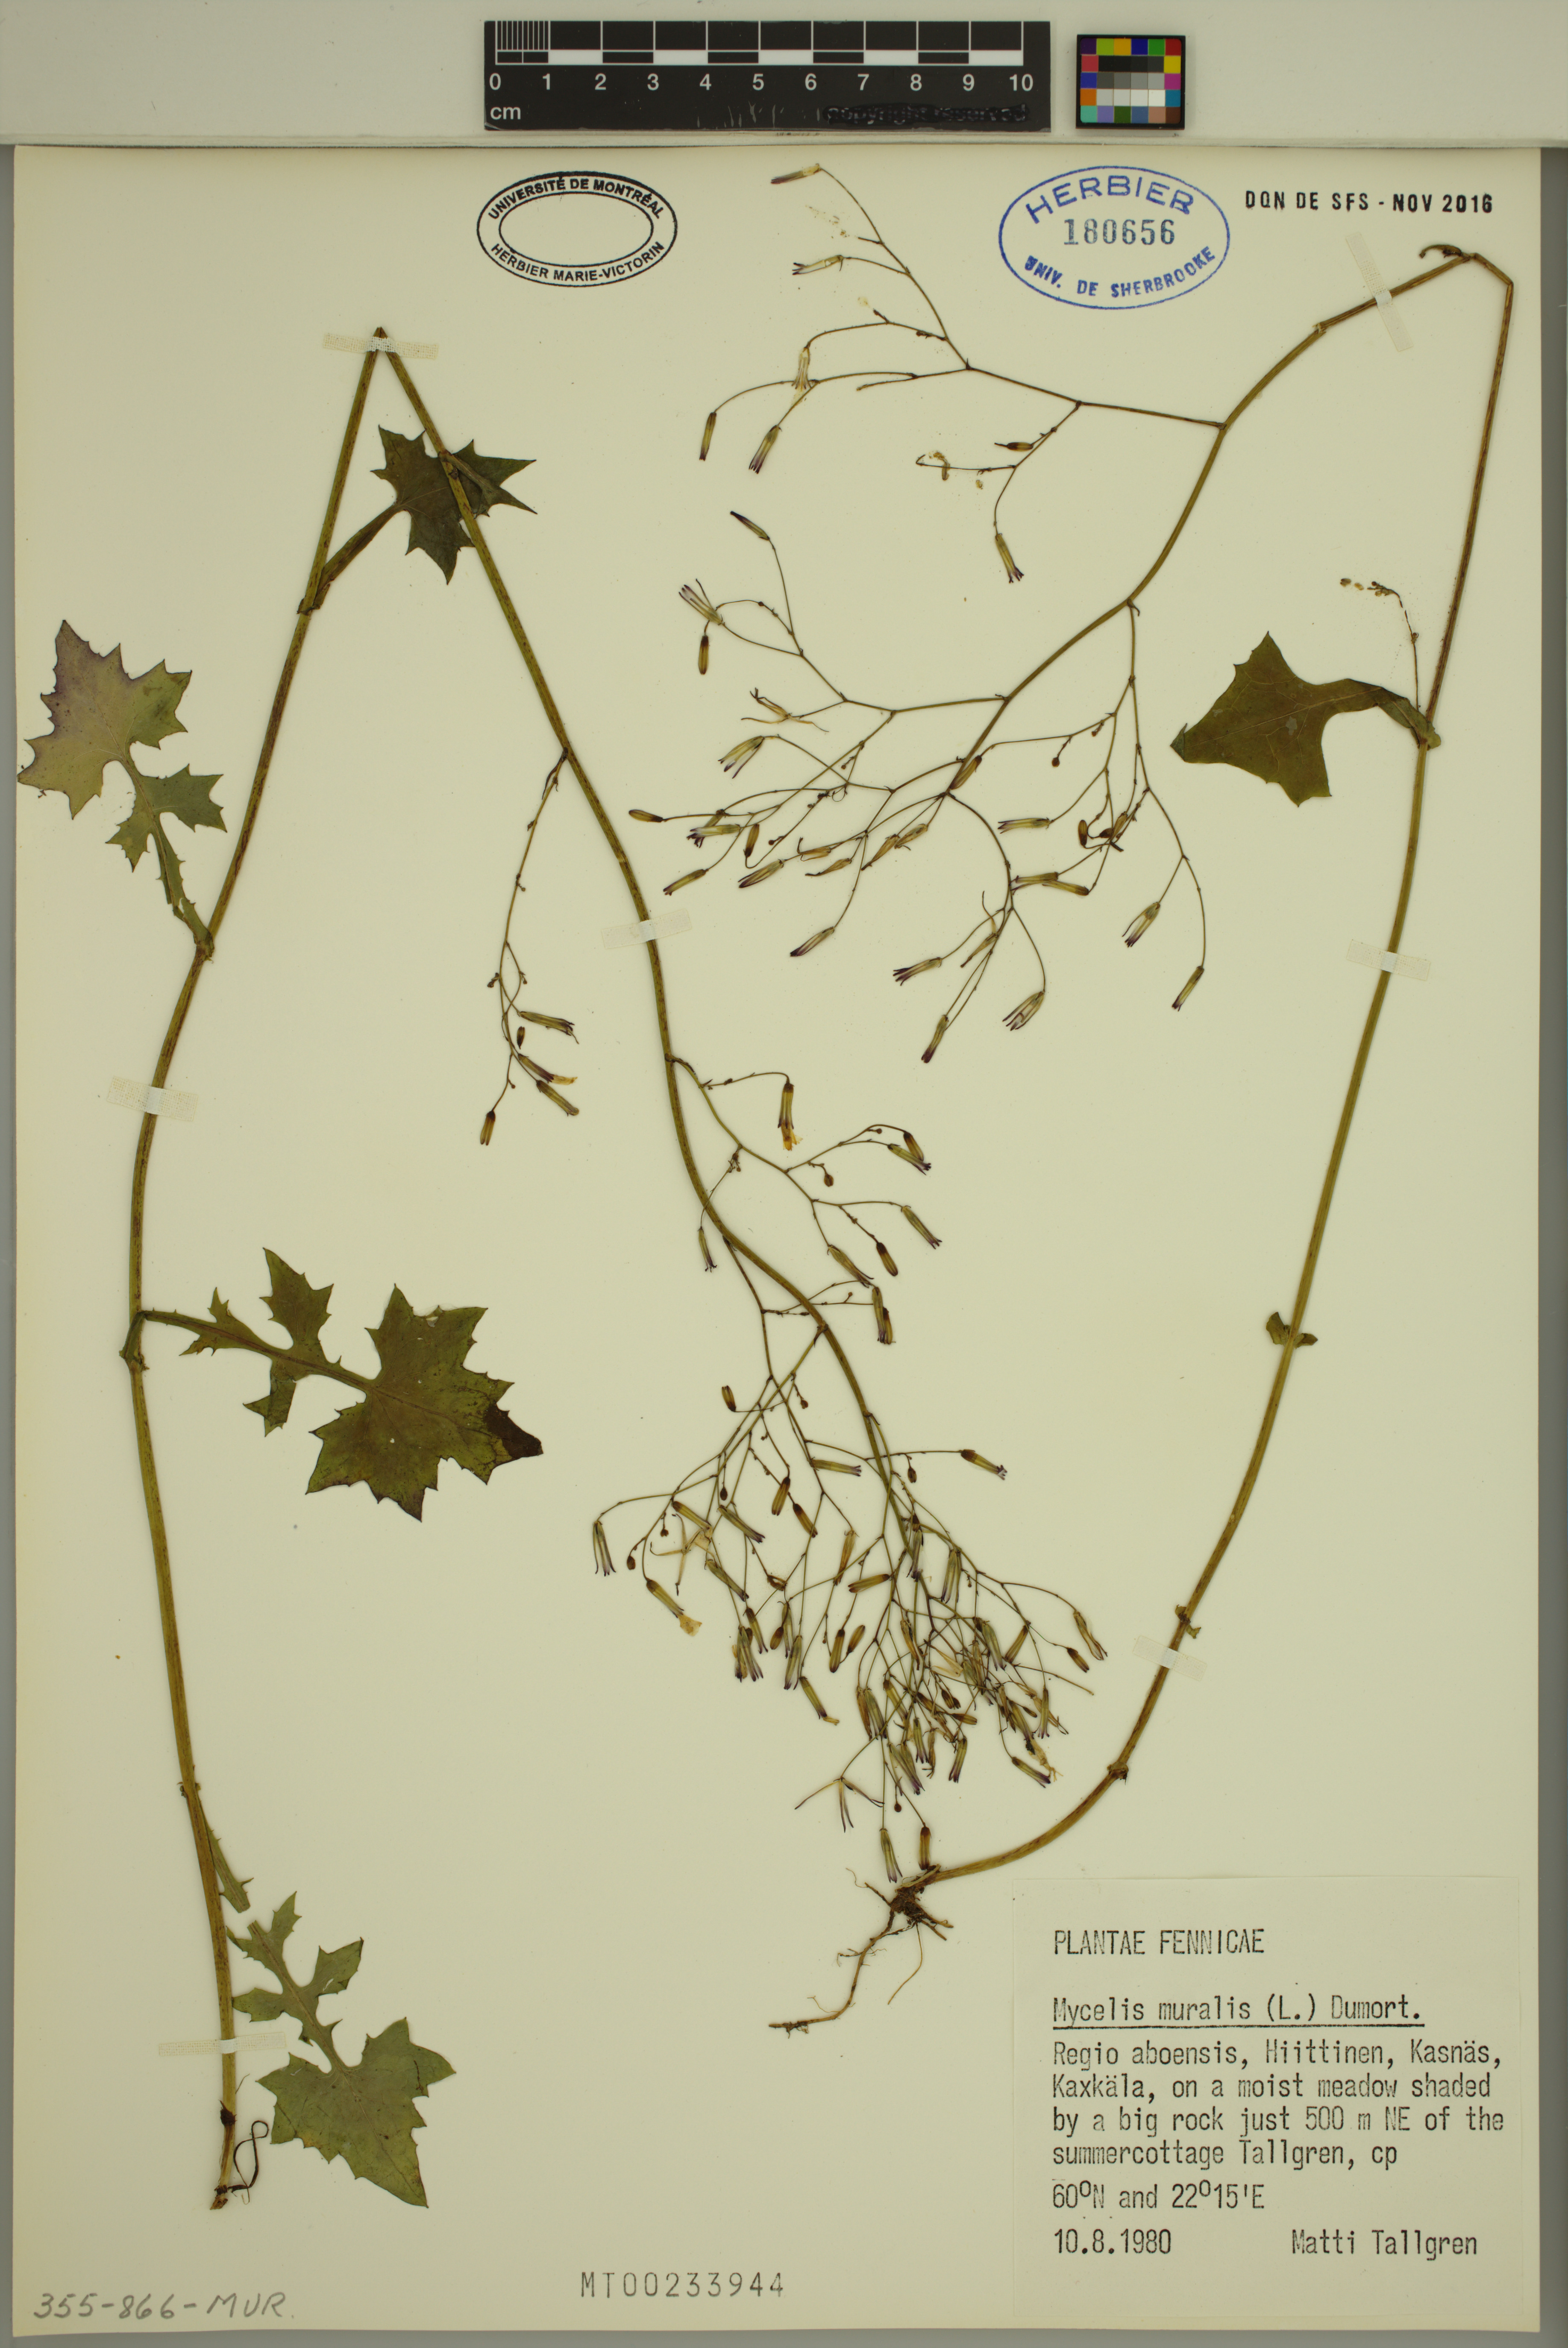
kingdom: Plantae
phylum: Tracheophyta
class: Magnoliopsida
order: Asterales
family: Asteraceae
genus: Mycelis
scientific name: Mycelis muralis
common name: Wall lettuce
